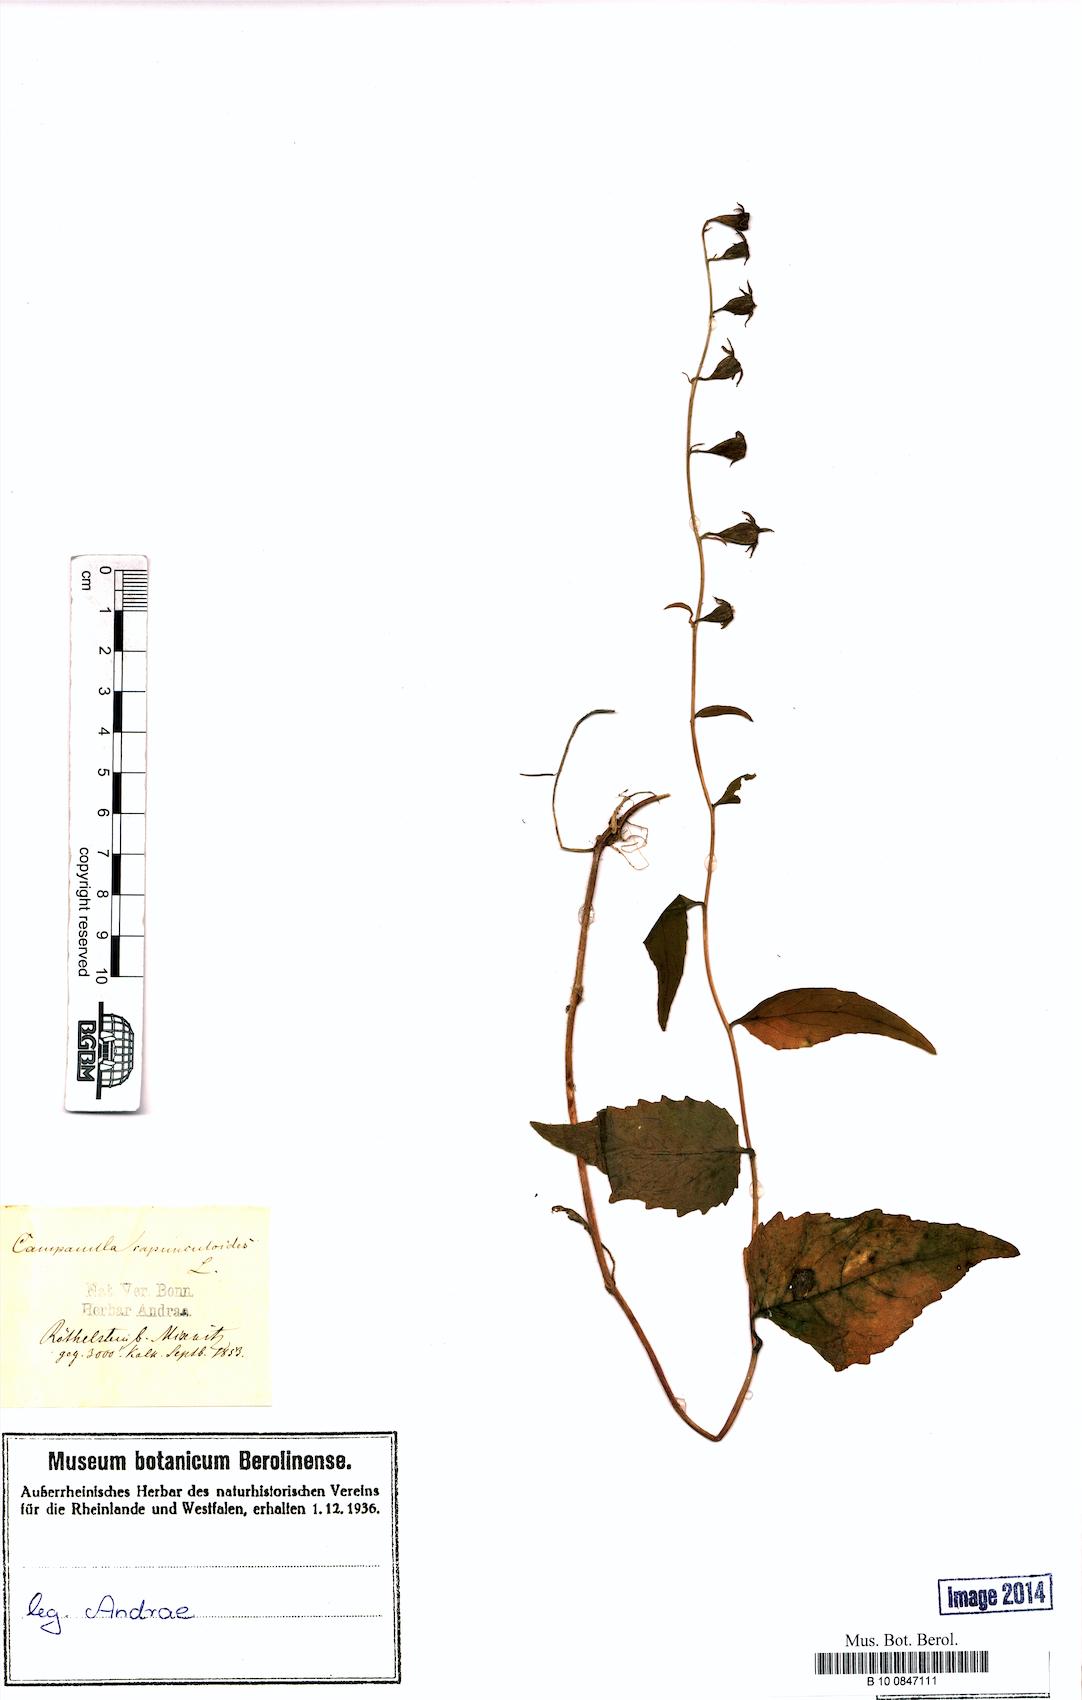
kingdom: Plantae
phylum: Tracheophyta
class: Magnoliopsida
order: Asterales
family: Campanulaceae
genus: Campanula
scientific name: Campanula rapunculoides
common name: Creeping bellflower
